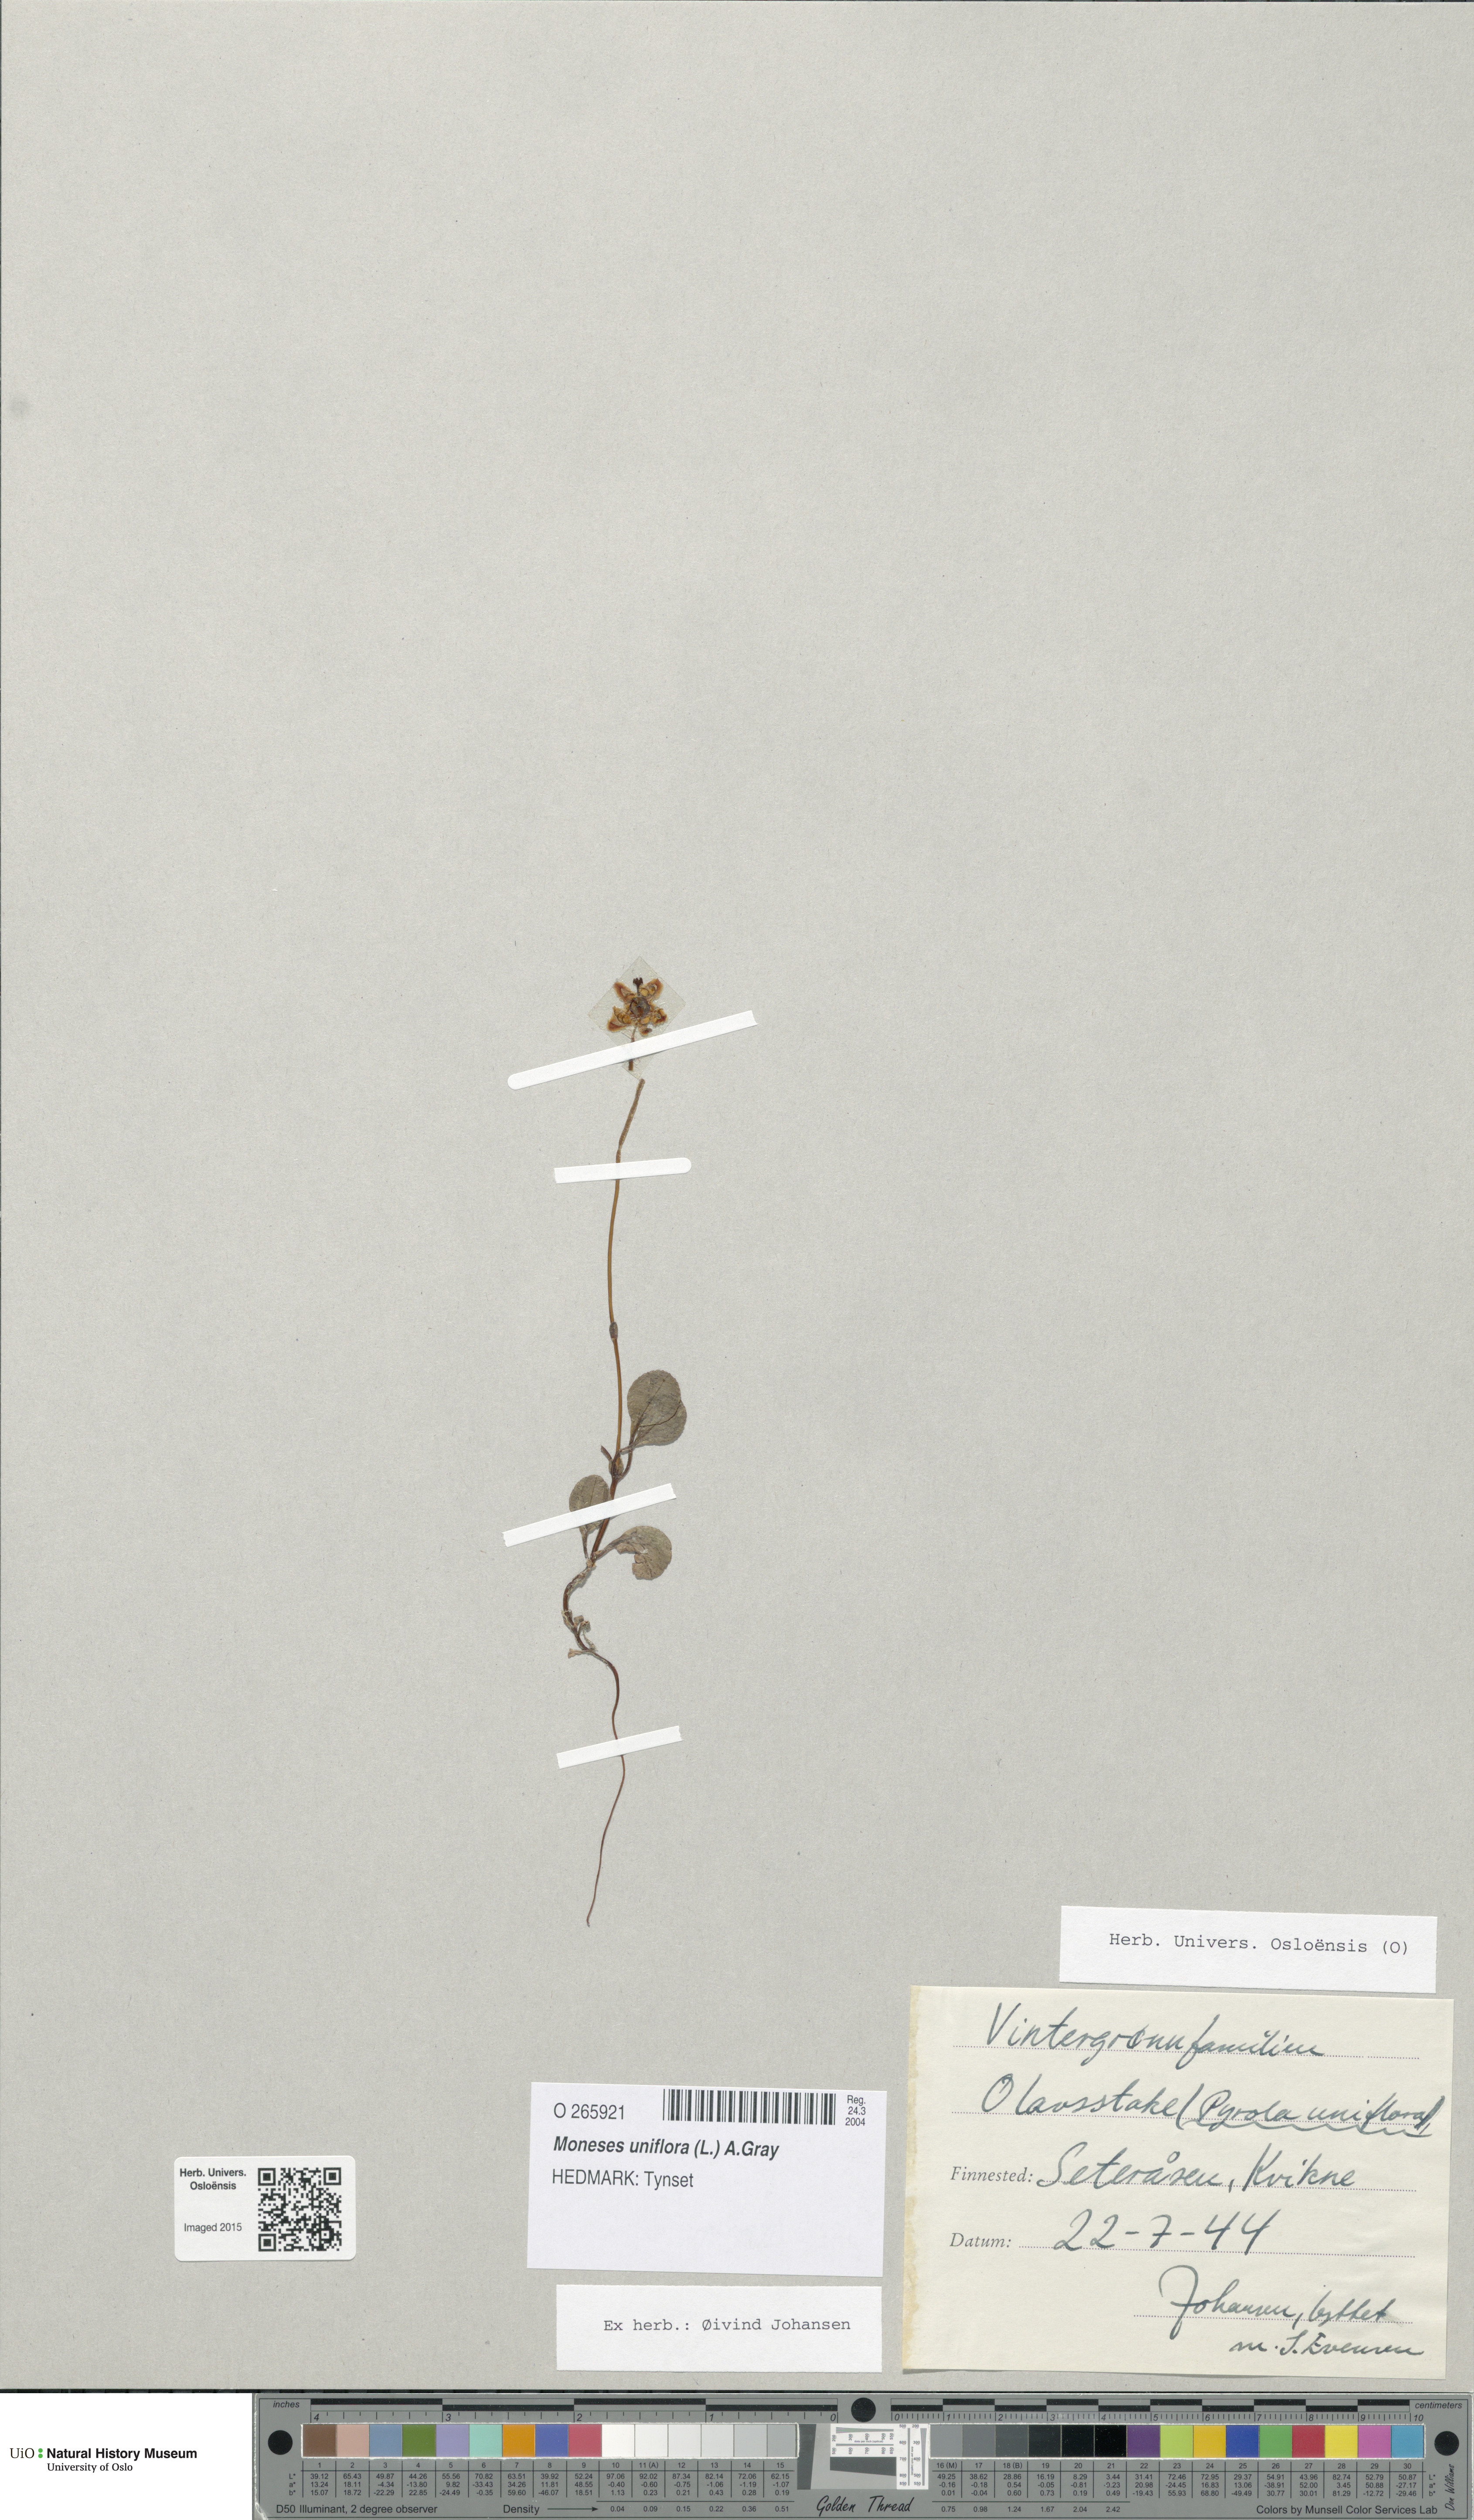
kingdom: Plantae
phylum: Tracheophyta
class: Magnoliopsida
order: Ericales
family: Ericaceae
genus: Moneses
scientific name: Moneses uniflora
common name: One-flowered wintergreen
